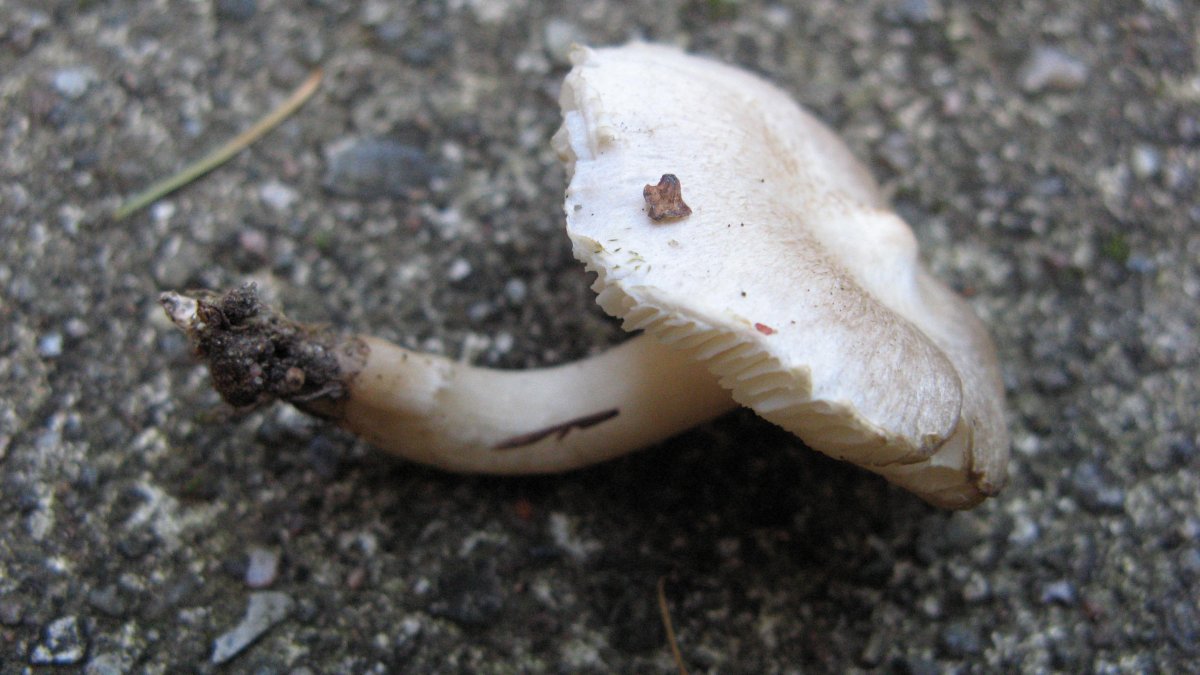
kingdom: Fungi
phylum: Basidiomycota
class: Agaricomycetes
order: Agaricales
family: Tricholomataceae
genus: Tricholoma
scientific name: Tricholoma argyraceum
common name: spids ridderhat
